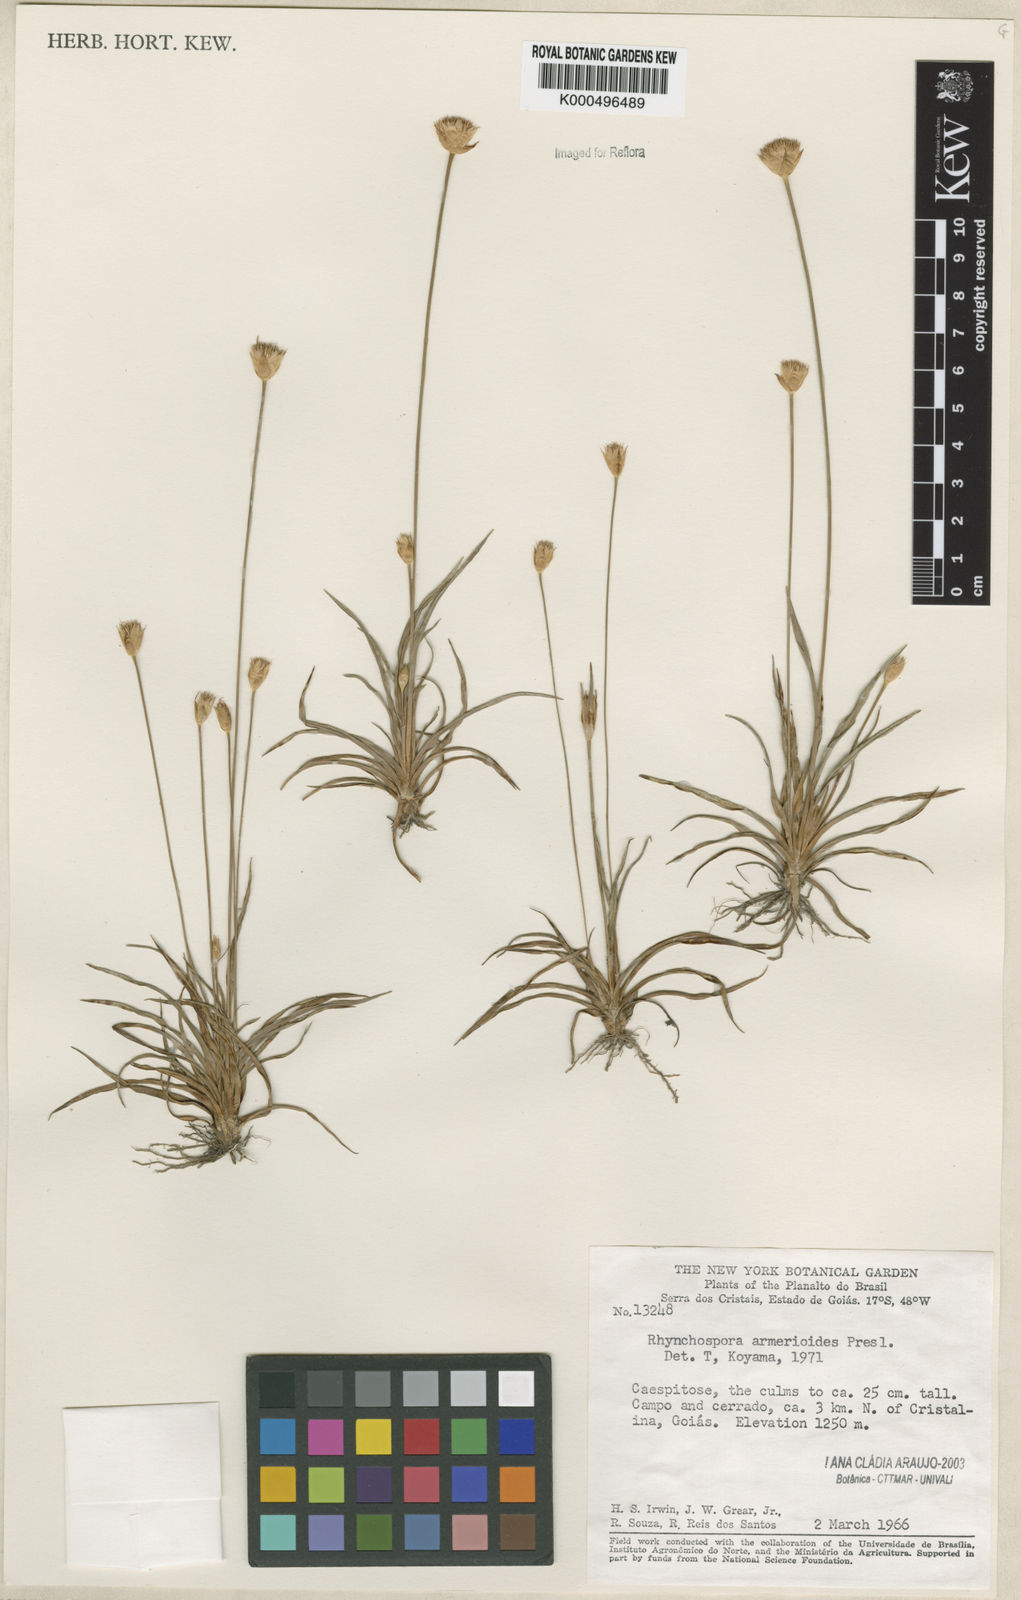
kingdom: Plantae
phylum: Tracheophyta
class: Liliopsida
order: Poales
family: Cyperaceae
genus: Rhynchospora
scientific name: Rhynchospora armerioides
